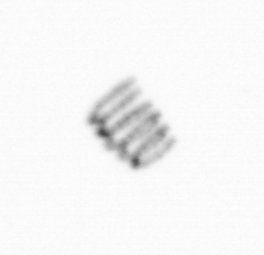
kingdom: Chromista
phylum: Ochrophyta
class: Bacillariophyceae
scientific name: Bacillariophyceae
